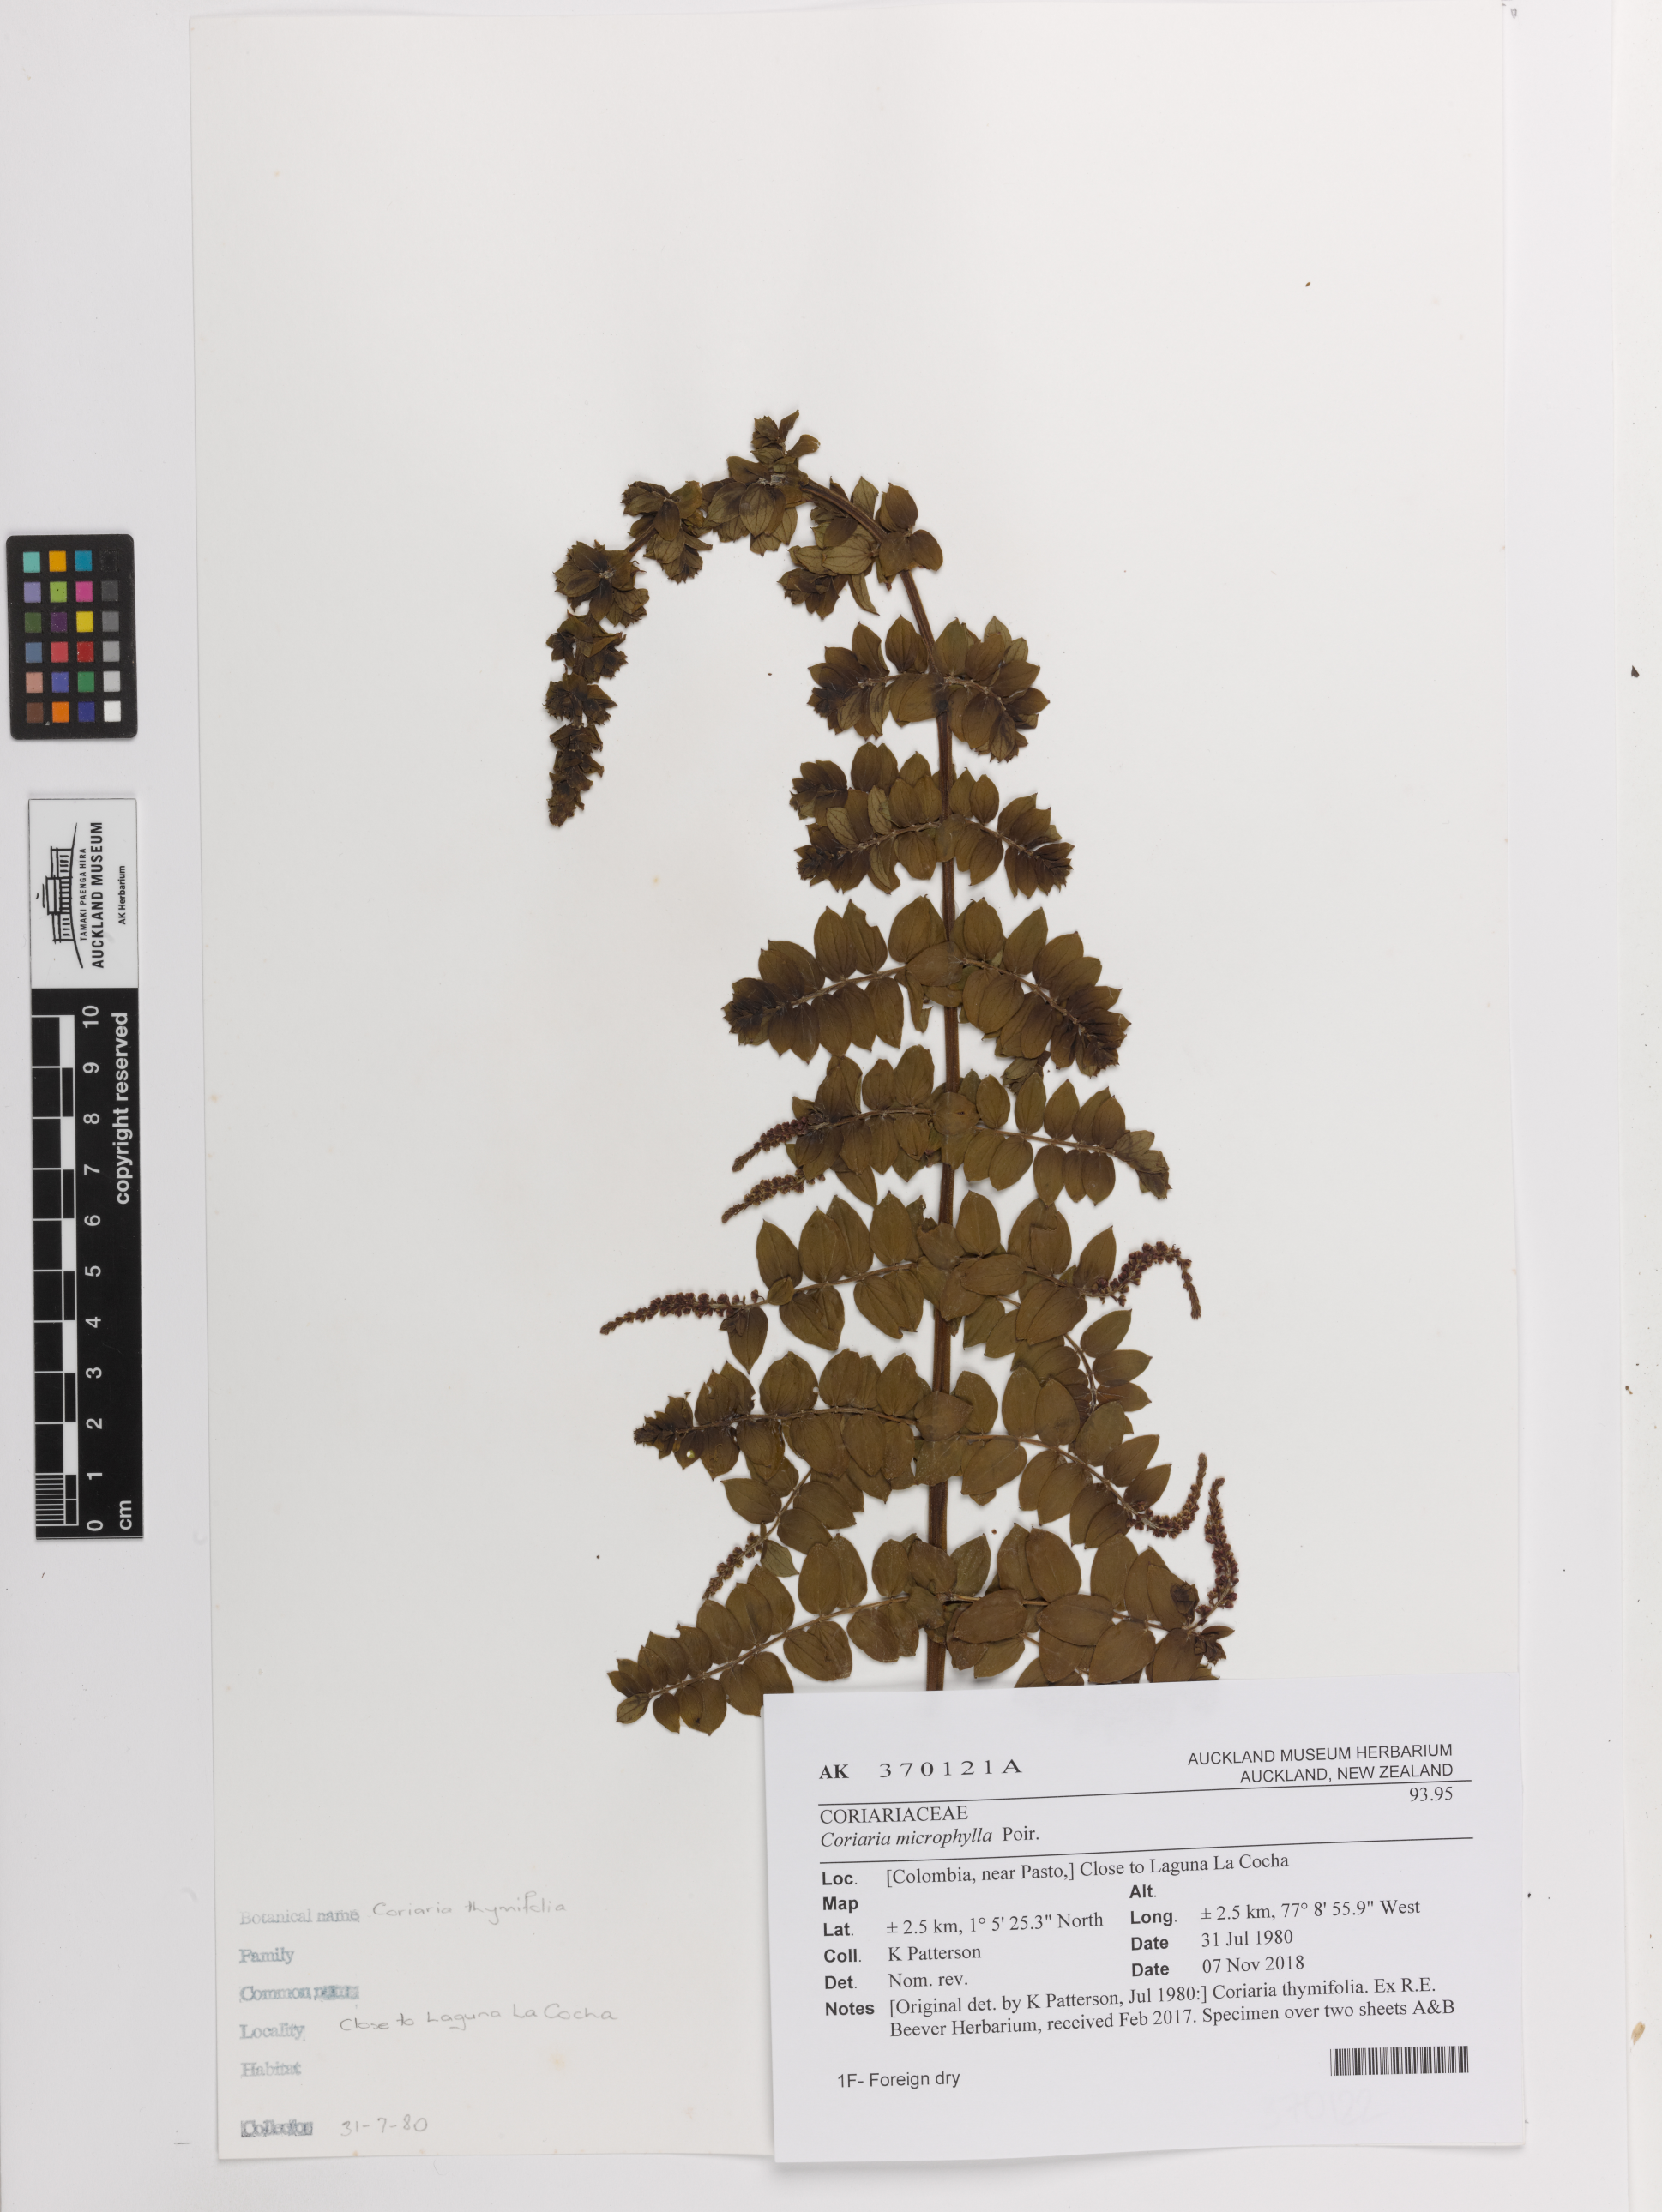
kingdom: Plantae
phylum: Tracheophyta
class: Magnoliopsida
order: Cucurbitales
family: Coriariaceae
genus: Coriaria
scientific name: Coriaria microphylla
